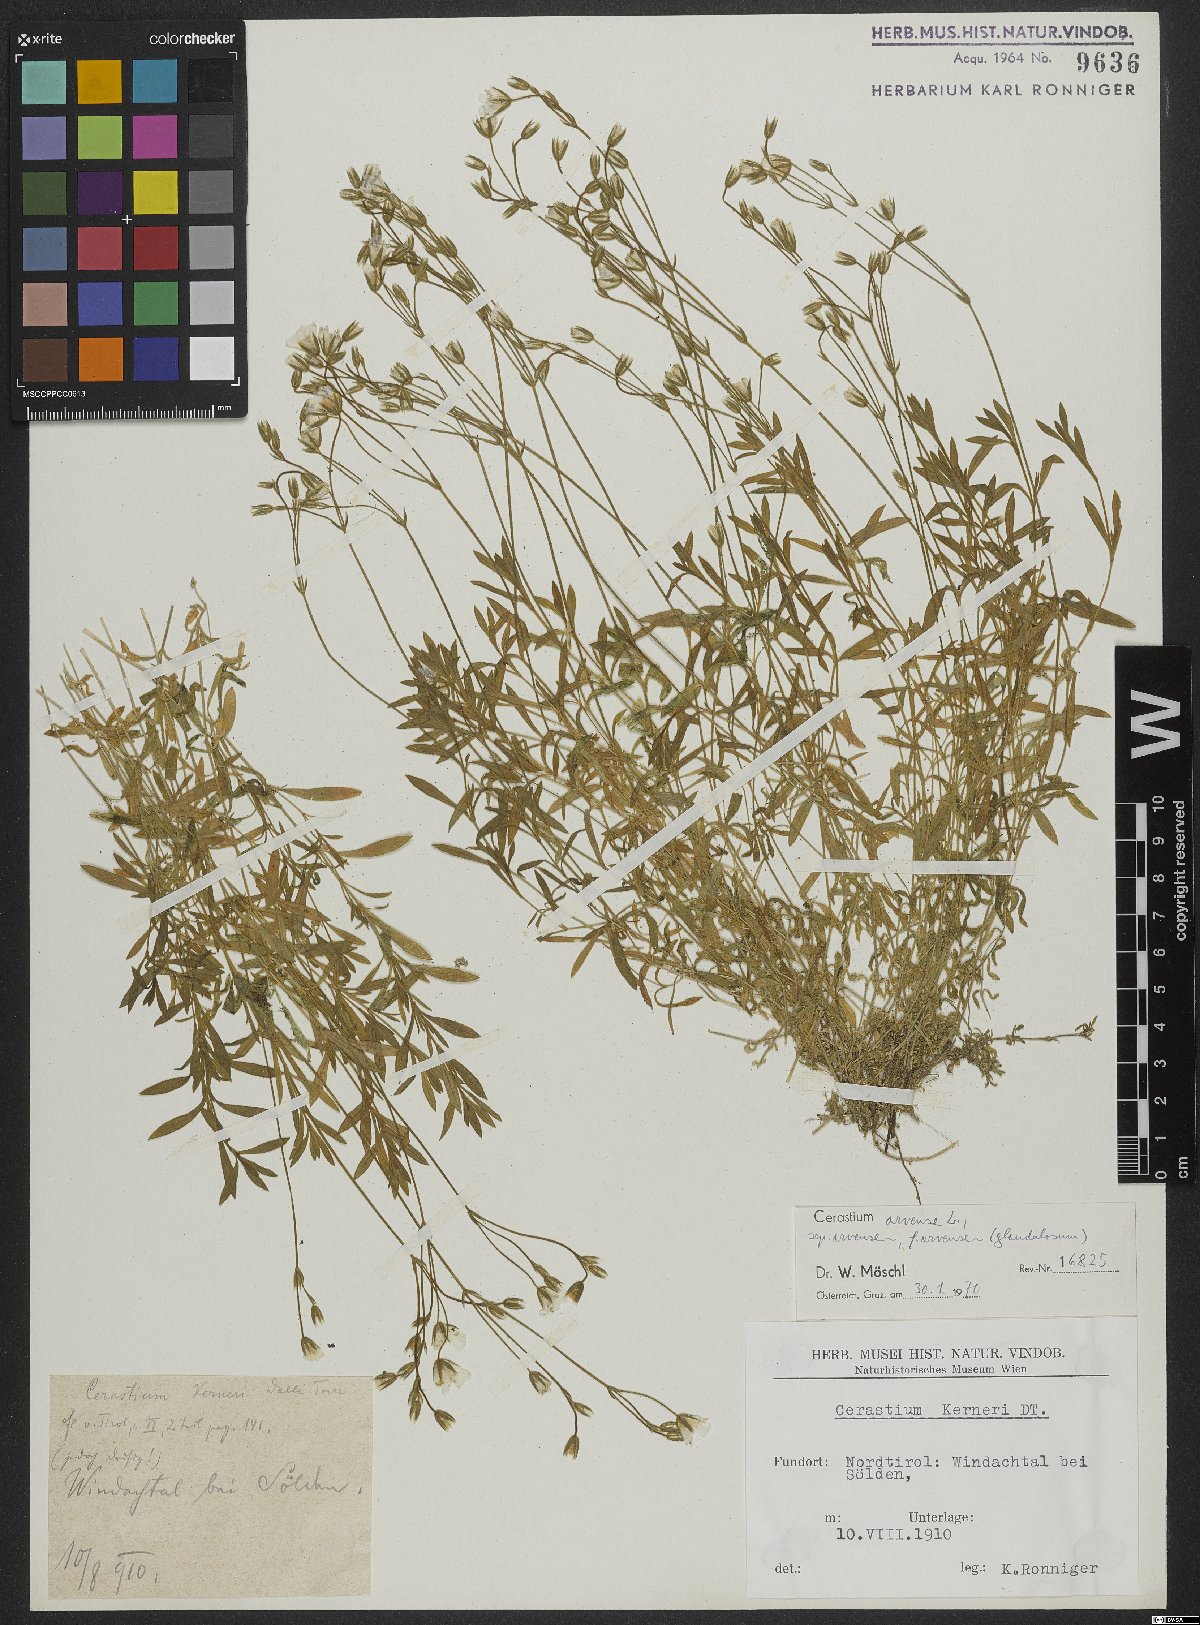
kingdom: Plantae
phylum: Tracheophyta
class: Magnoliopsida
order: Caryophyllales
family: Caryophyllaceae
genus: Cerastium
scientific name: Cerastium arvense
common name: Field mouse-ear
